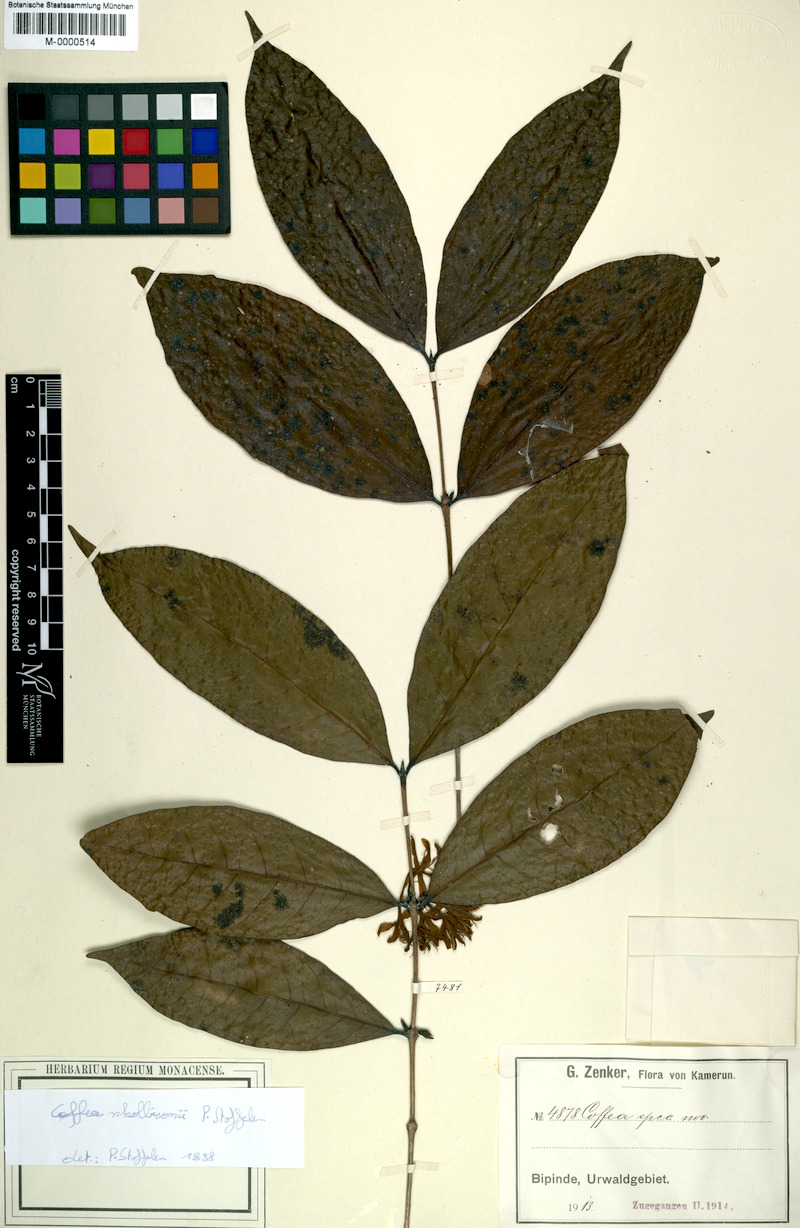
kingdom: Plantae
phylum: Tracheophyta
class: Magnoliopsida
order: Gentianales
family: Rubiaceae
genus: Coffea
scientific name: Coffea nkolbisonii
